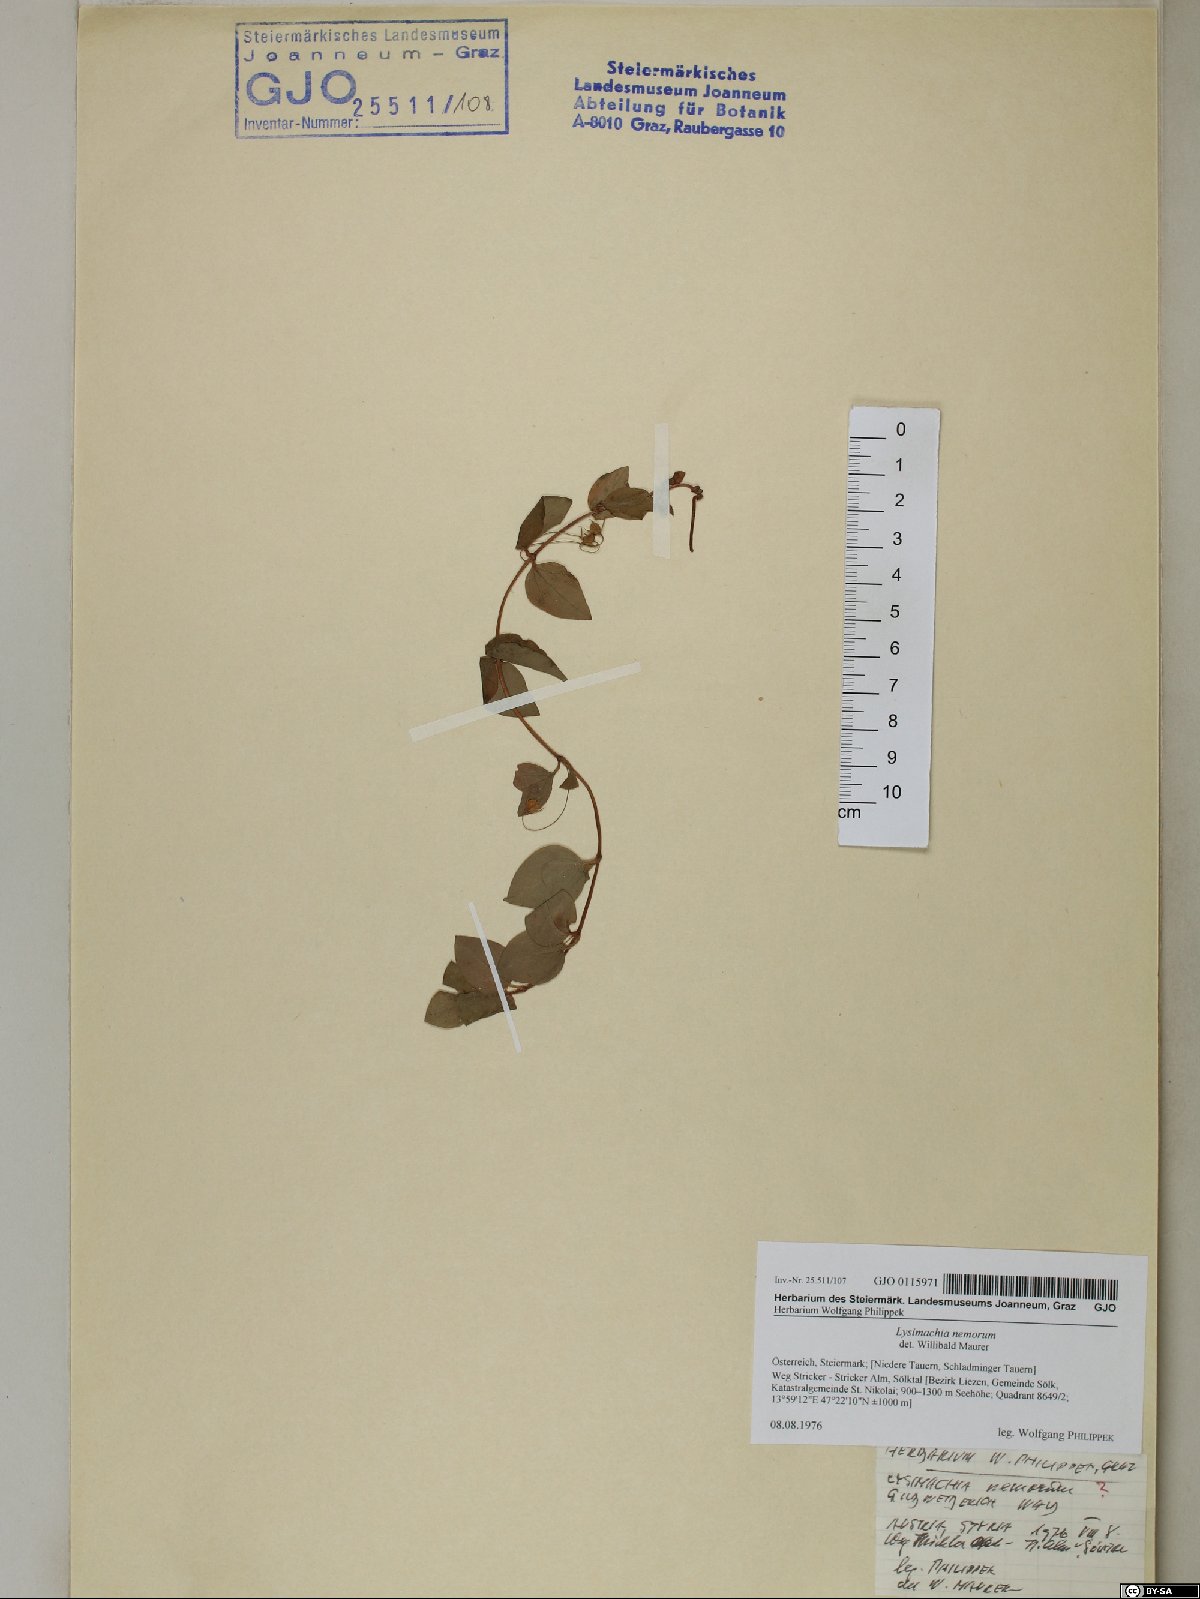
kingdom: Plantae
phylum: Tracheophyta
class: Magnoliopsida
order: Ericales
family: Primulaceae
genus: Lysimachia
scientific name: Lysimachia nemorum
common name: Yellow pimpernel
